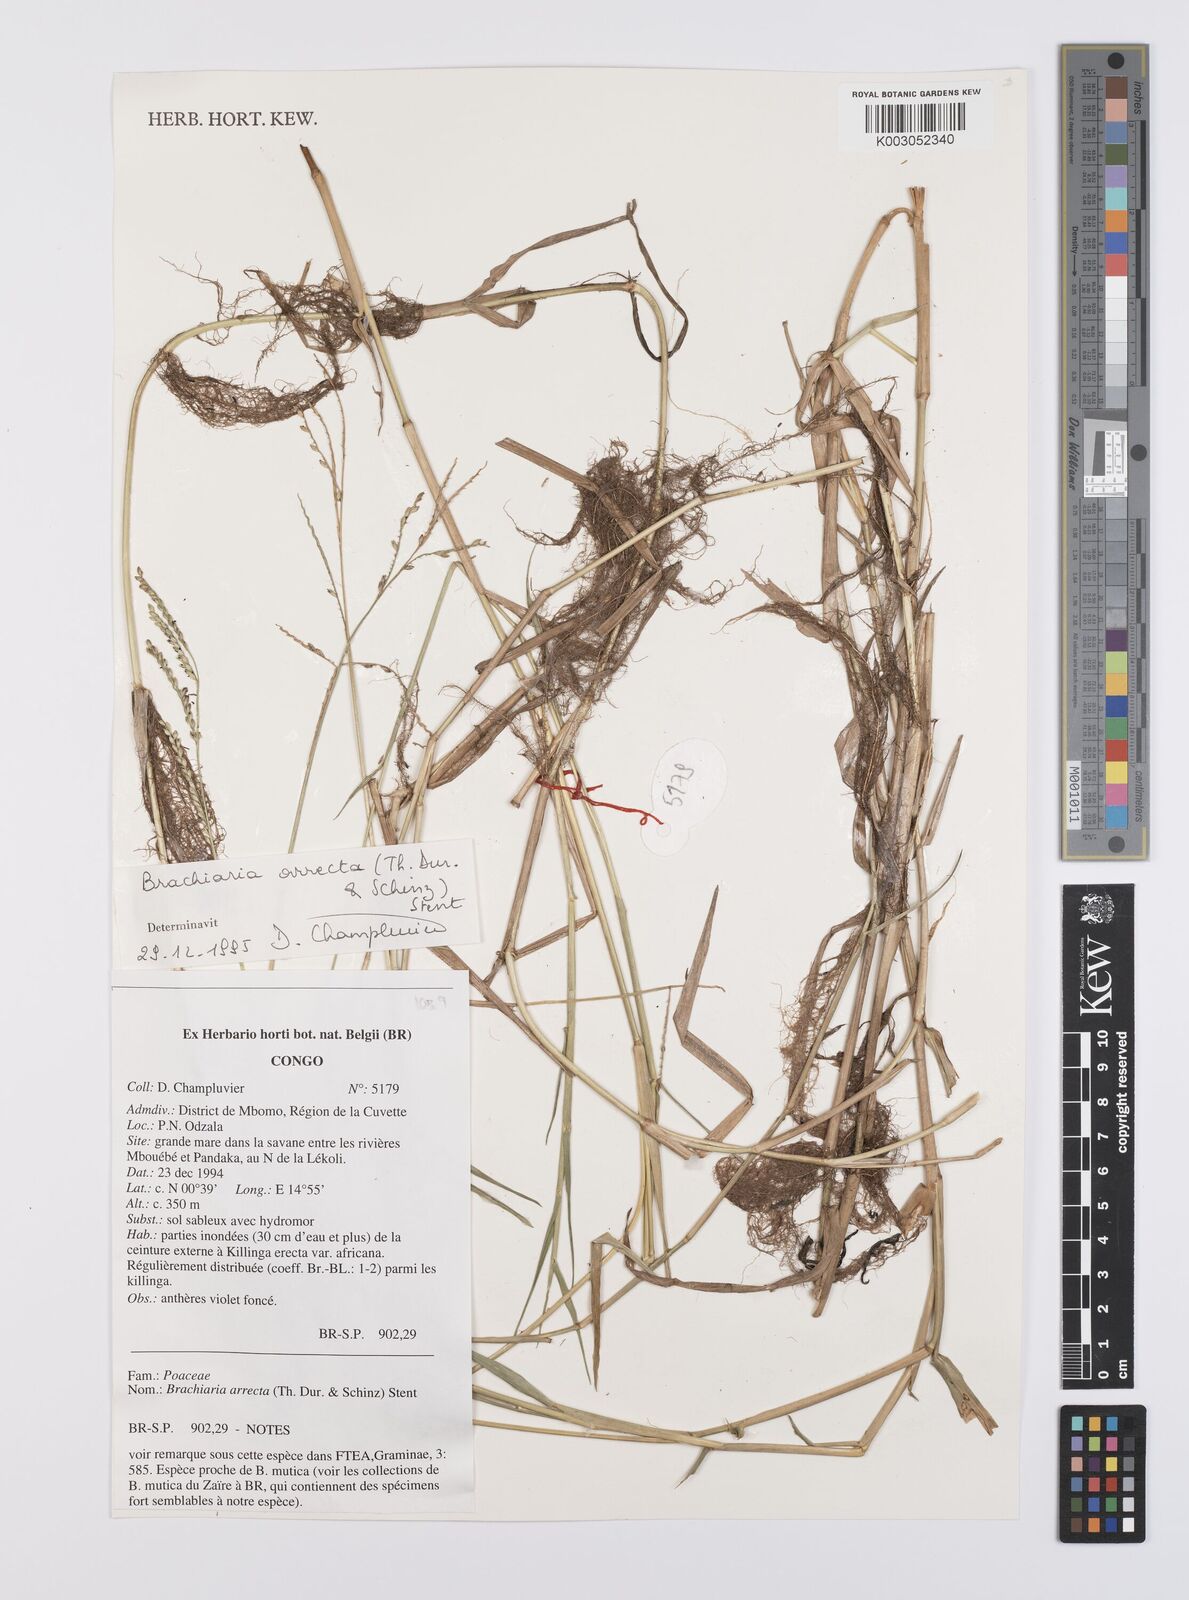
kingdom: Plantae
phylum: Tracheophyta
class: Liliopsida
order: Poales
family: Poaceae
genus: Urochloa
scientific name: Urochloa arrecta
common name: African signalgrass
